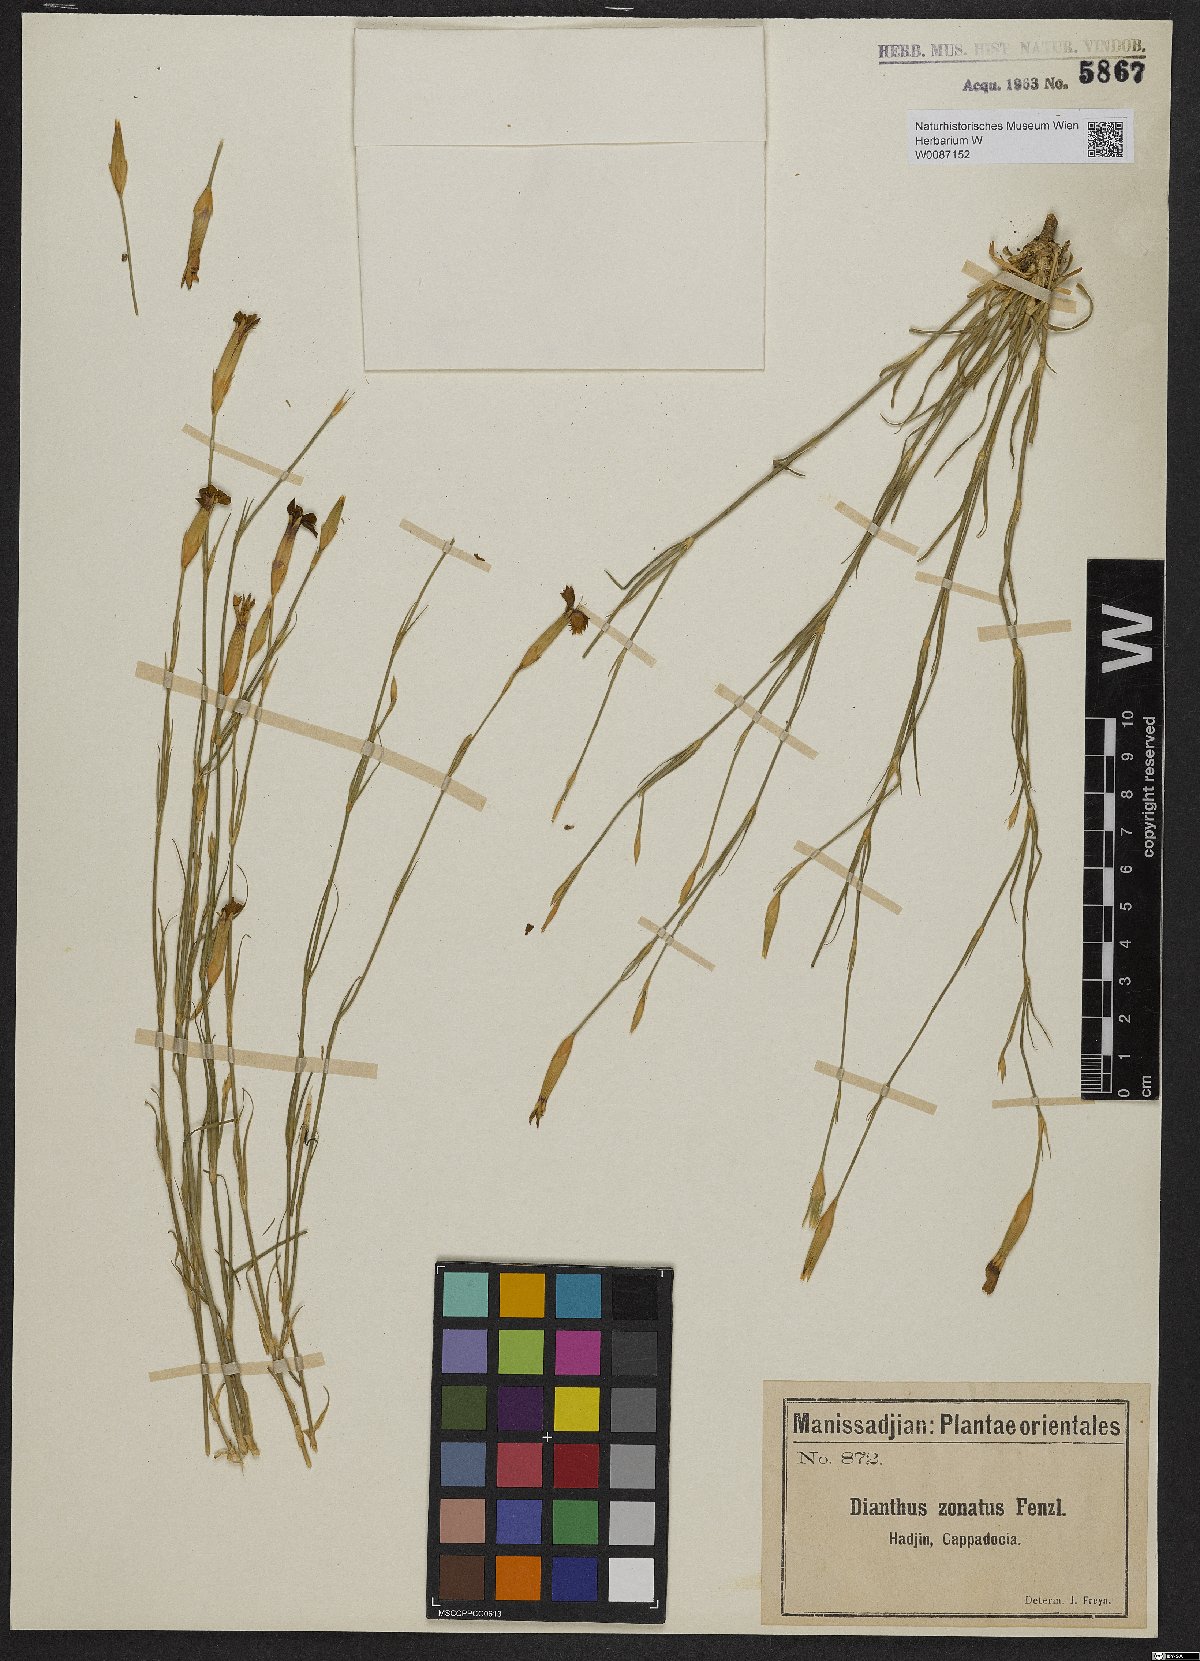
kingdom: Plantae
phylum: Tracheophyta
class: Magnoliopsida
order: Caryophyllales
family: Caryophyllaceae
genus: Dianthus
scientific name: Dianthus zonatus
